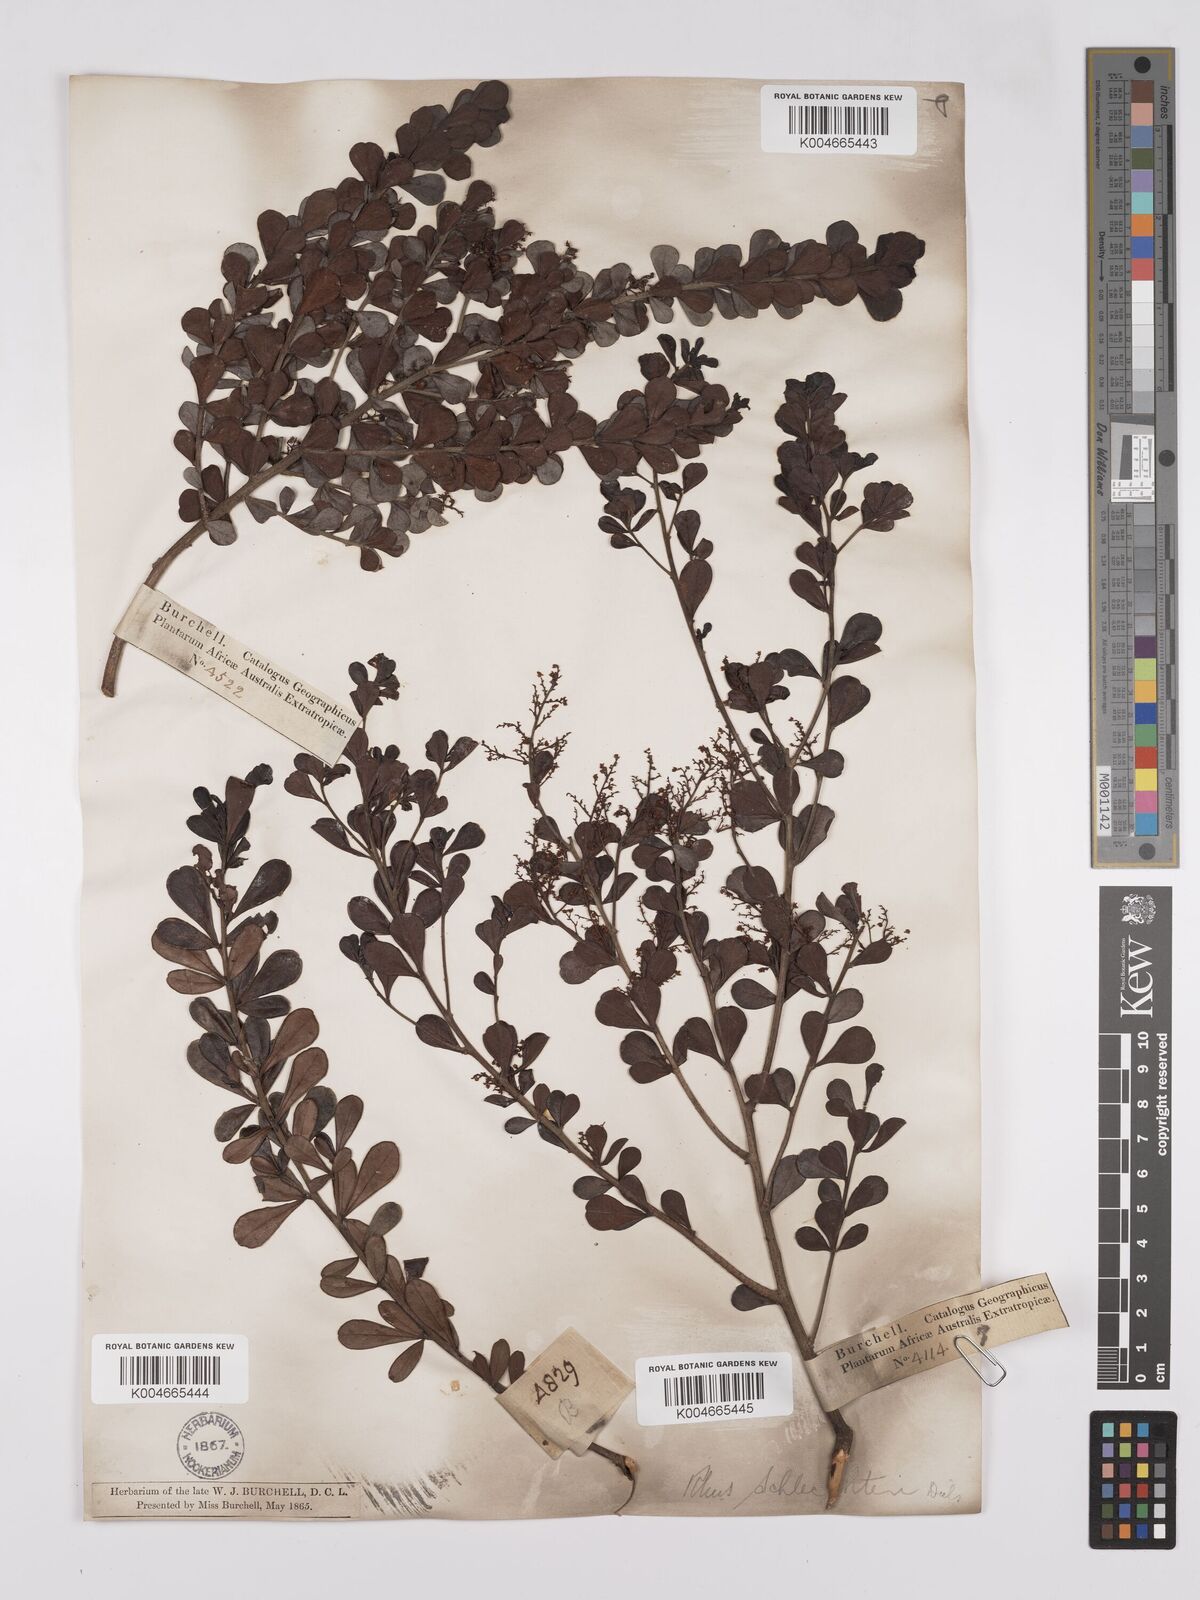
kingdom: Plantae
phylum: Tracheophyta
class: Magnoliopsida
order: Sapindales
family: Anacardiaceae
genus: Searsia
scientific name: Searsia lucida
